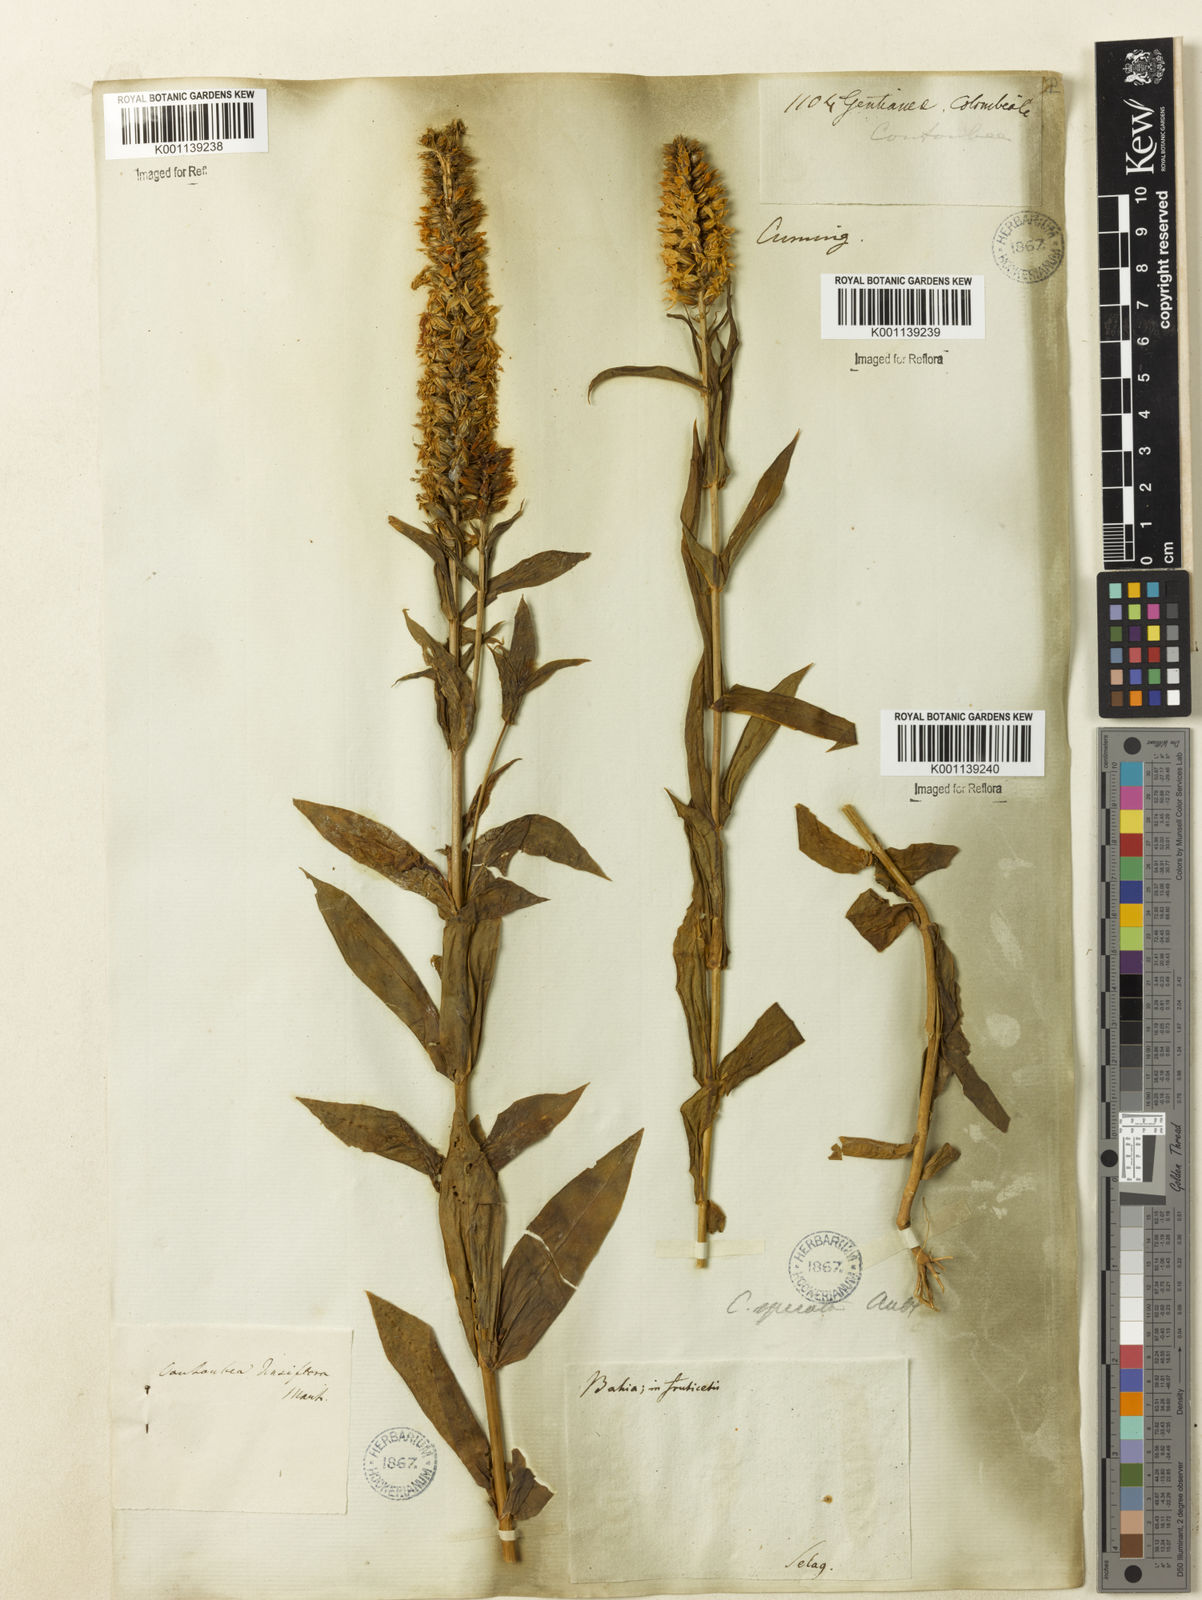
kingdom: Plantae
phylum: Tracheophyta
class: Magnoliopsida
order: Gentianales
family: Gentianaceae
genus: Coutoubea
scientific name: Coutoubea spicata
